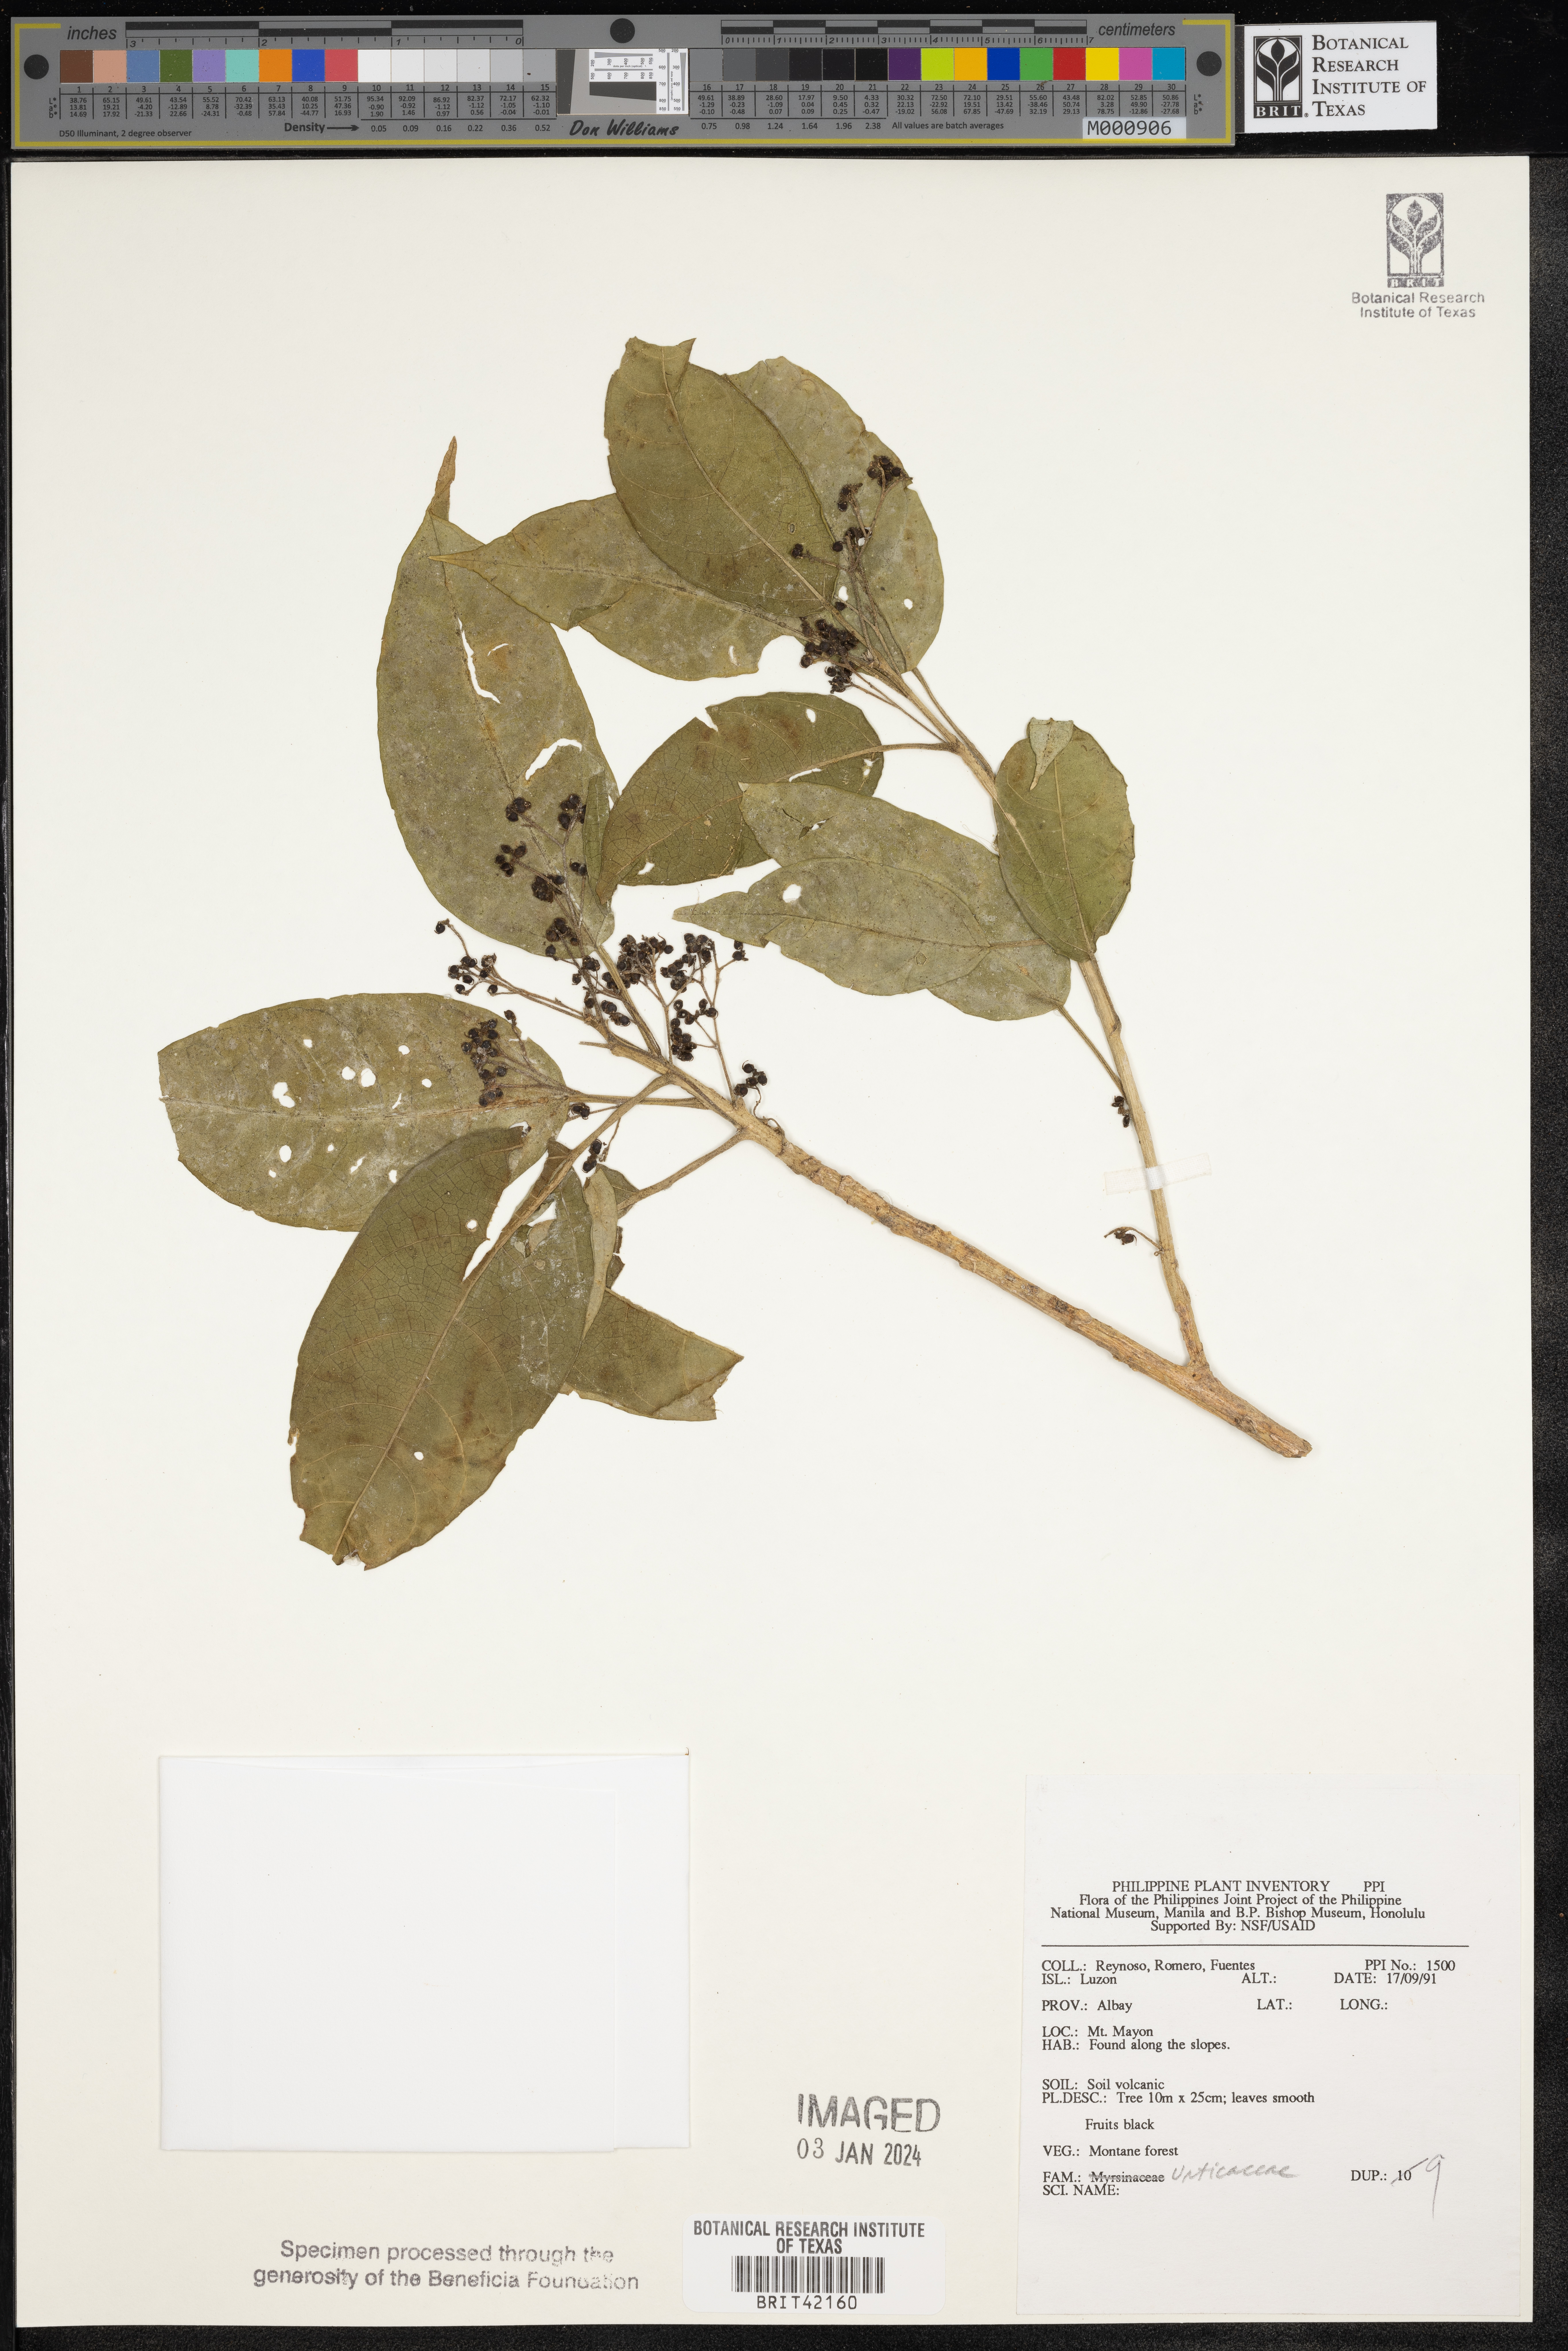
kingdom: Plantae
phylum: Tracheophyta
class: Magnoliopsida
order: Rosales
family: Urticaceae
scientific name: Urticaceae
